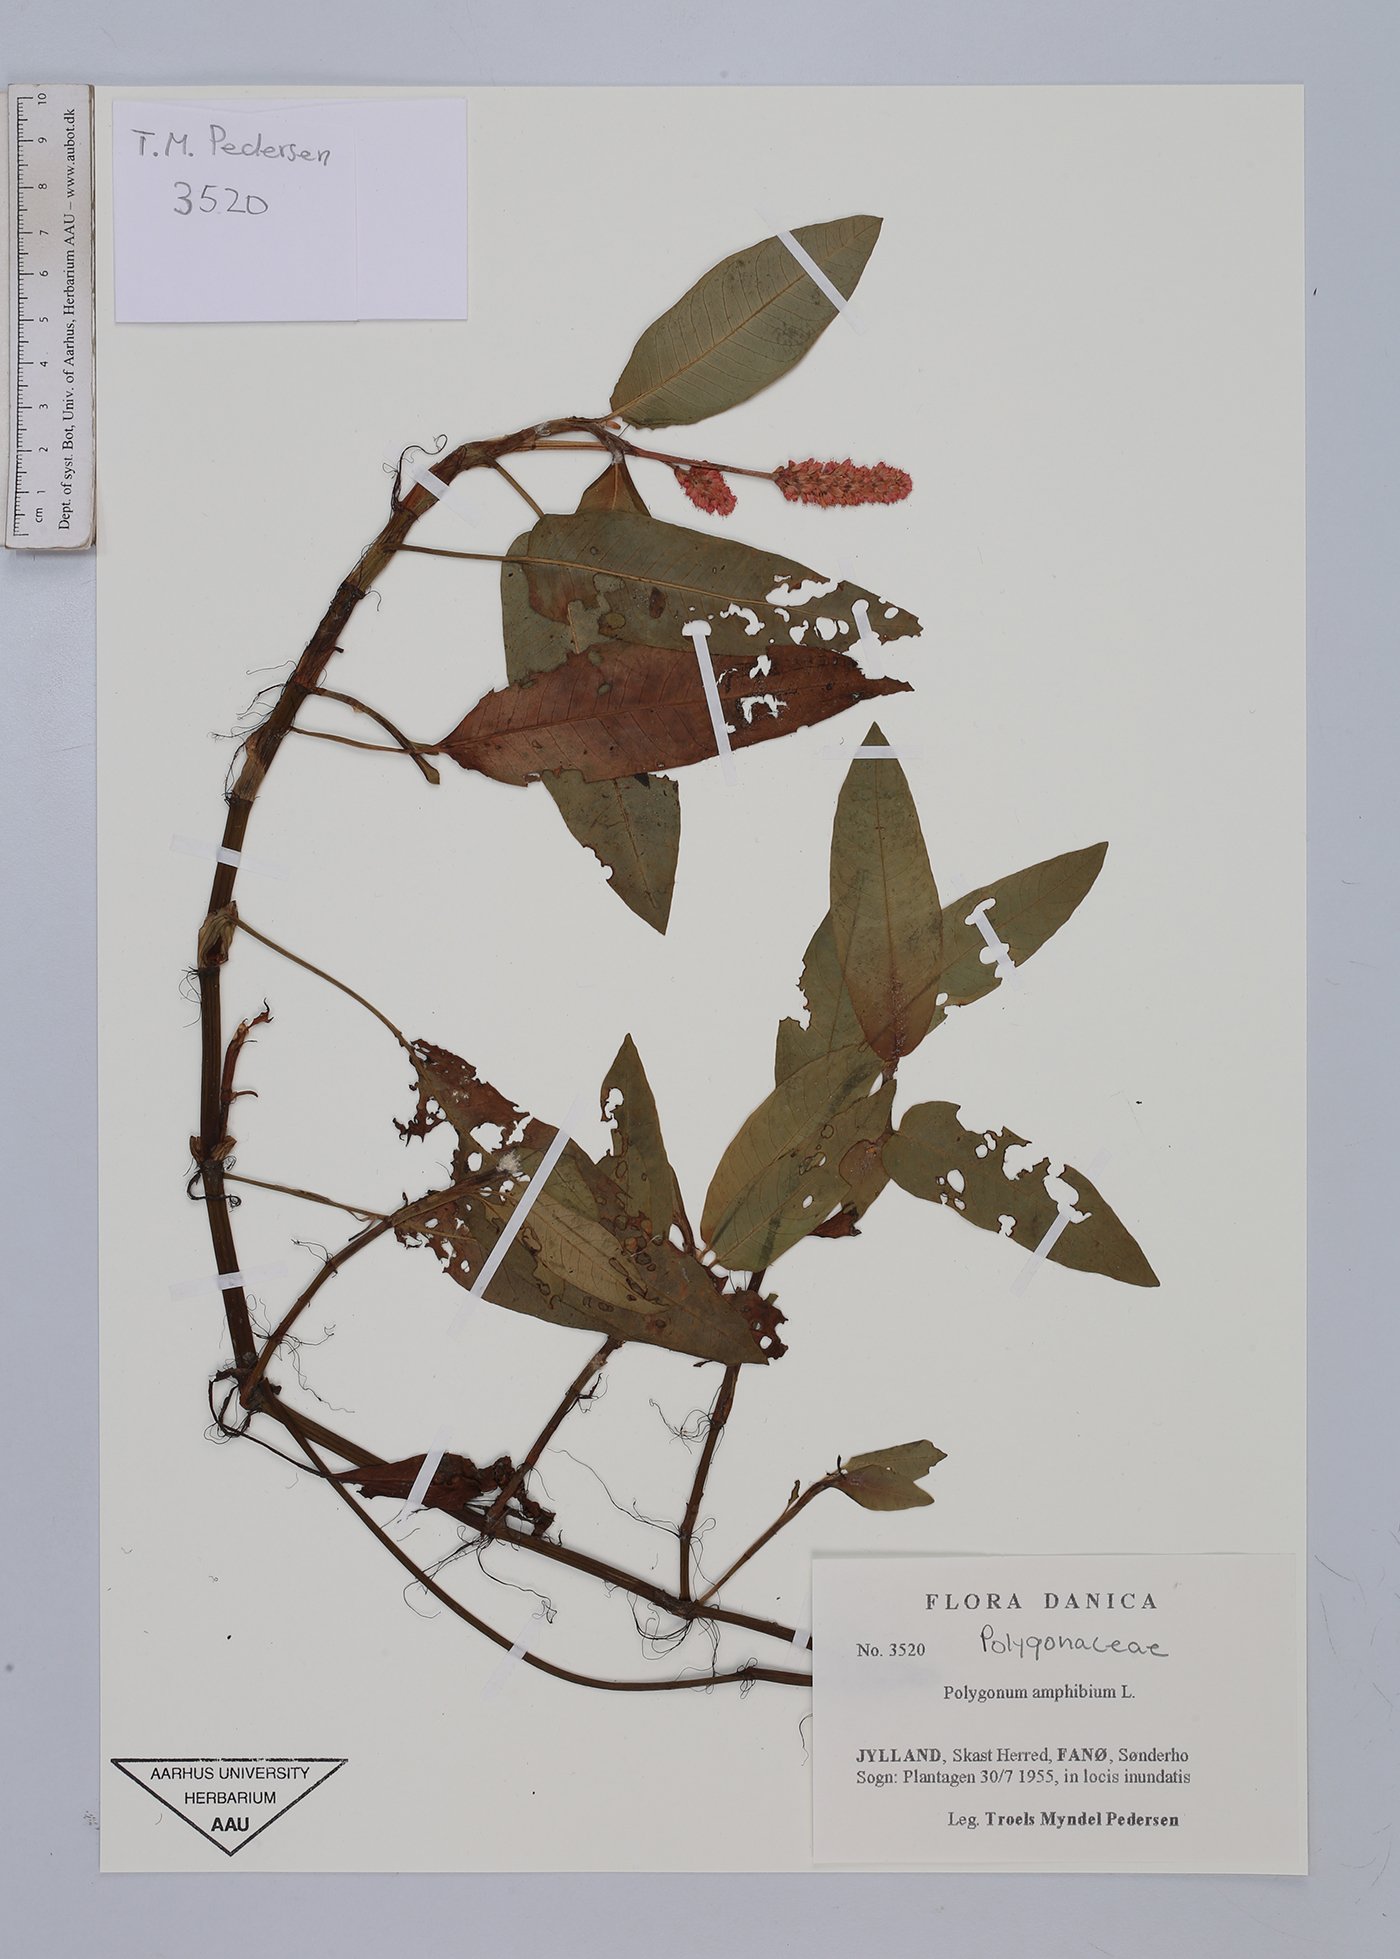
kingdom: Plantae
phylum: Tracheophyta
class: Magnoliopsida
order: Caryophyllales
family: Polygonaceae
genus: Persicaria
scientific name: Persicaria amphibia
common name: Amphibious bistort
